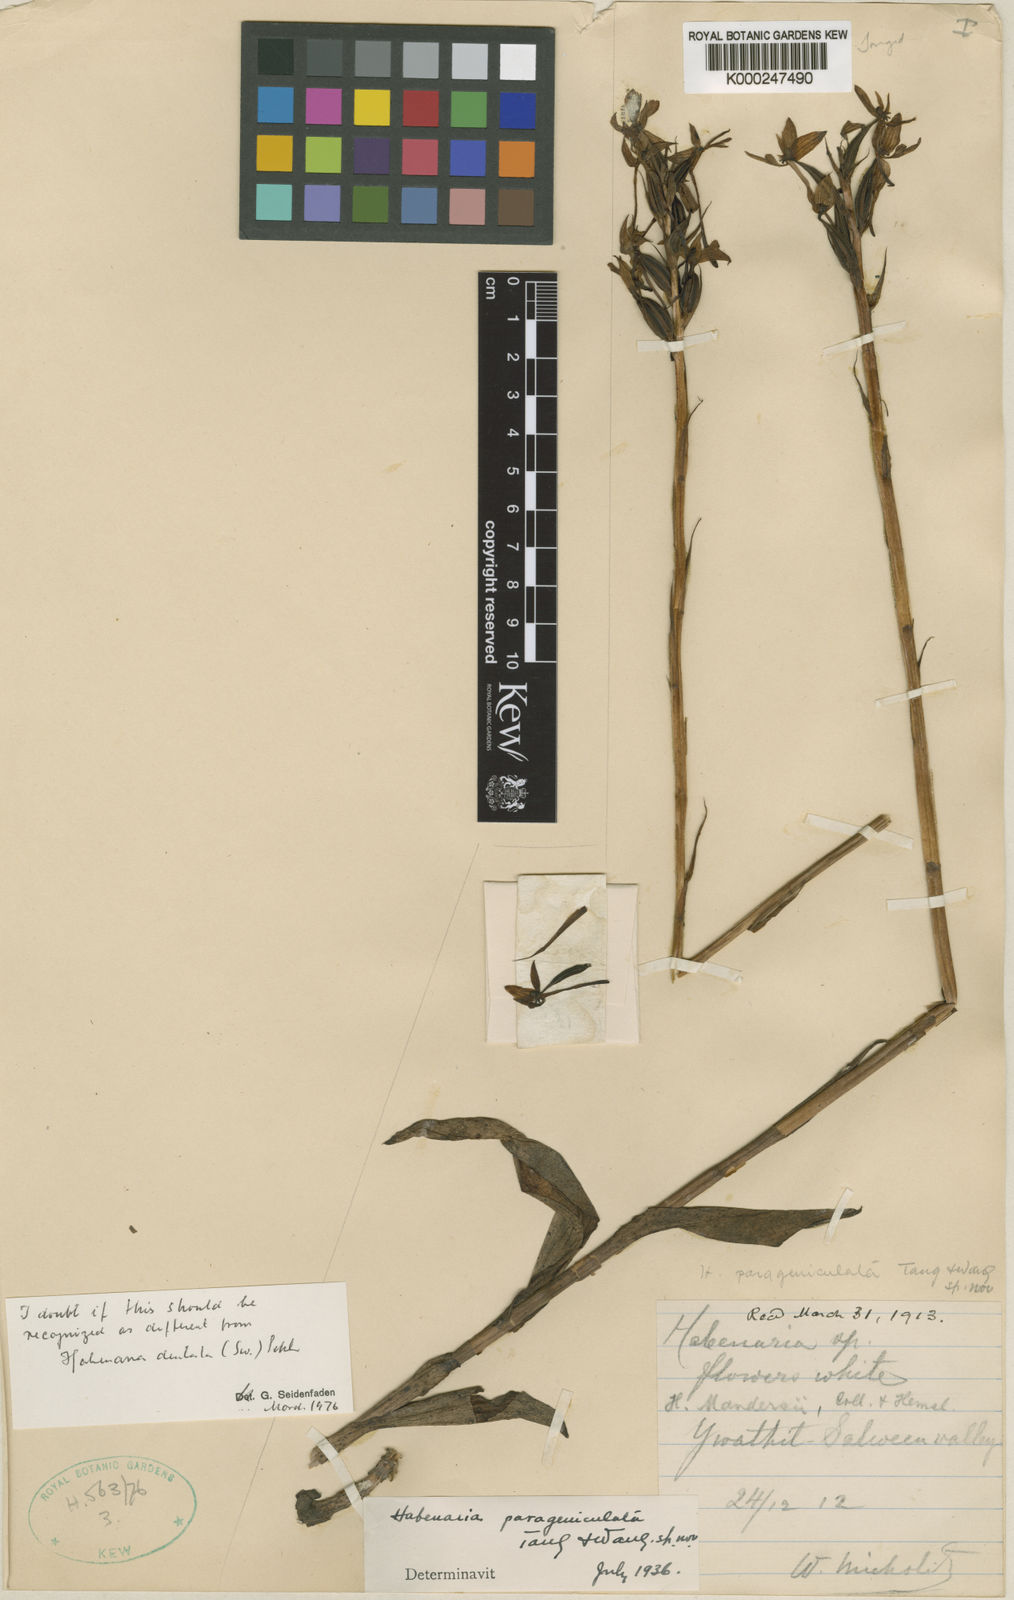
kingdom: Plantae
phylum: Tracheophyta
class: Liliopsida
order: Asparagales
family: Orchidaceae
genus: Habenaria
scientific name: Habenaria dentata
